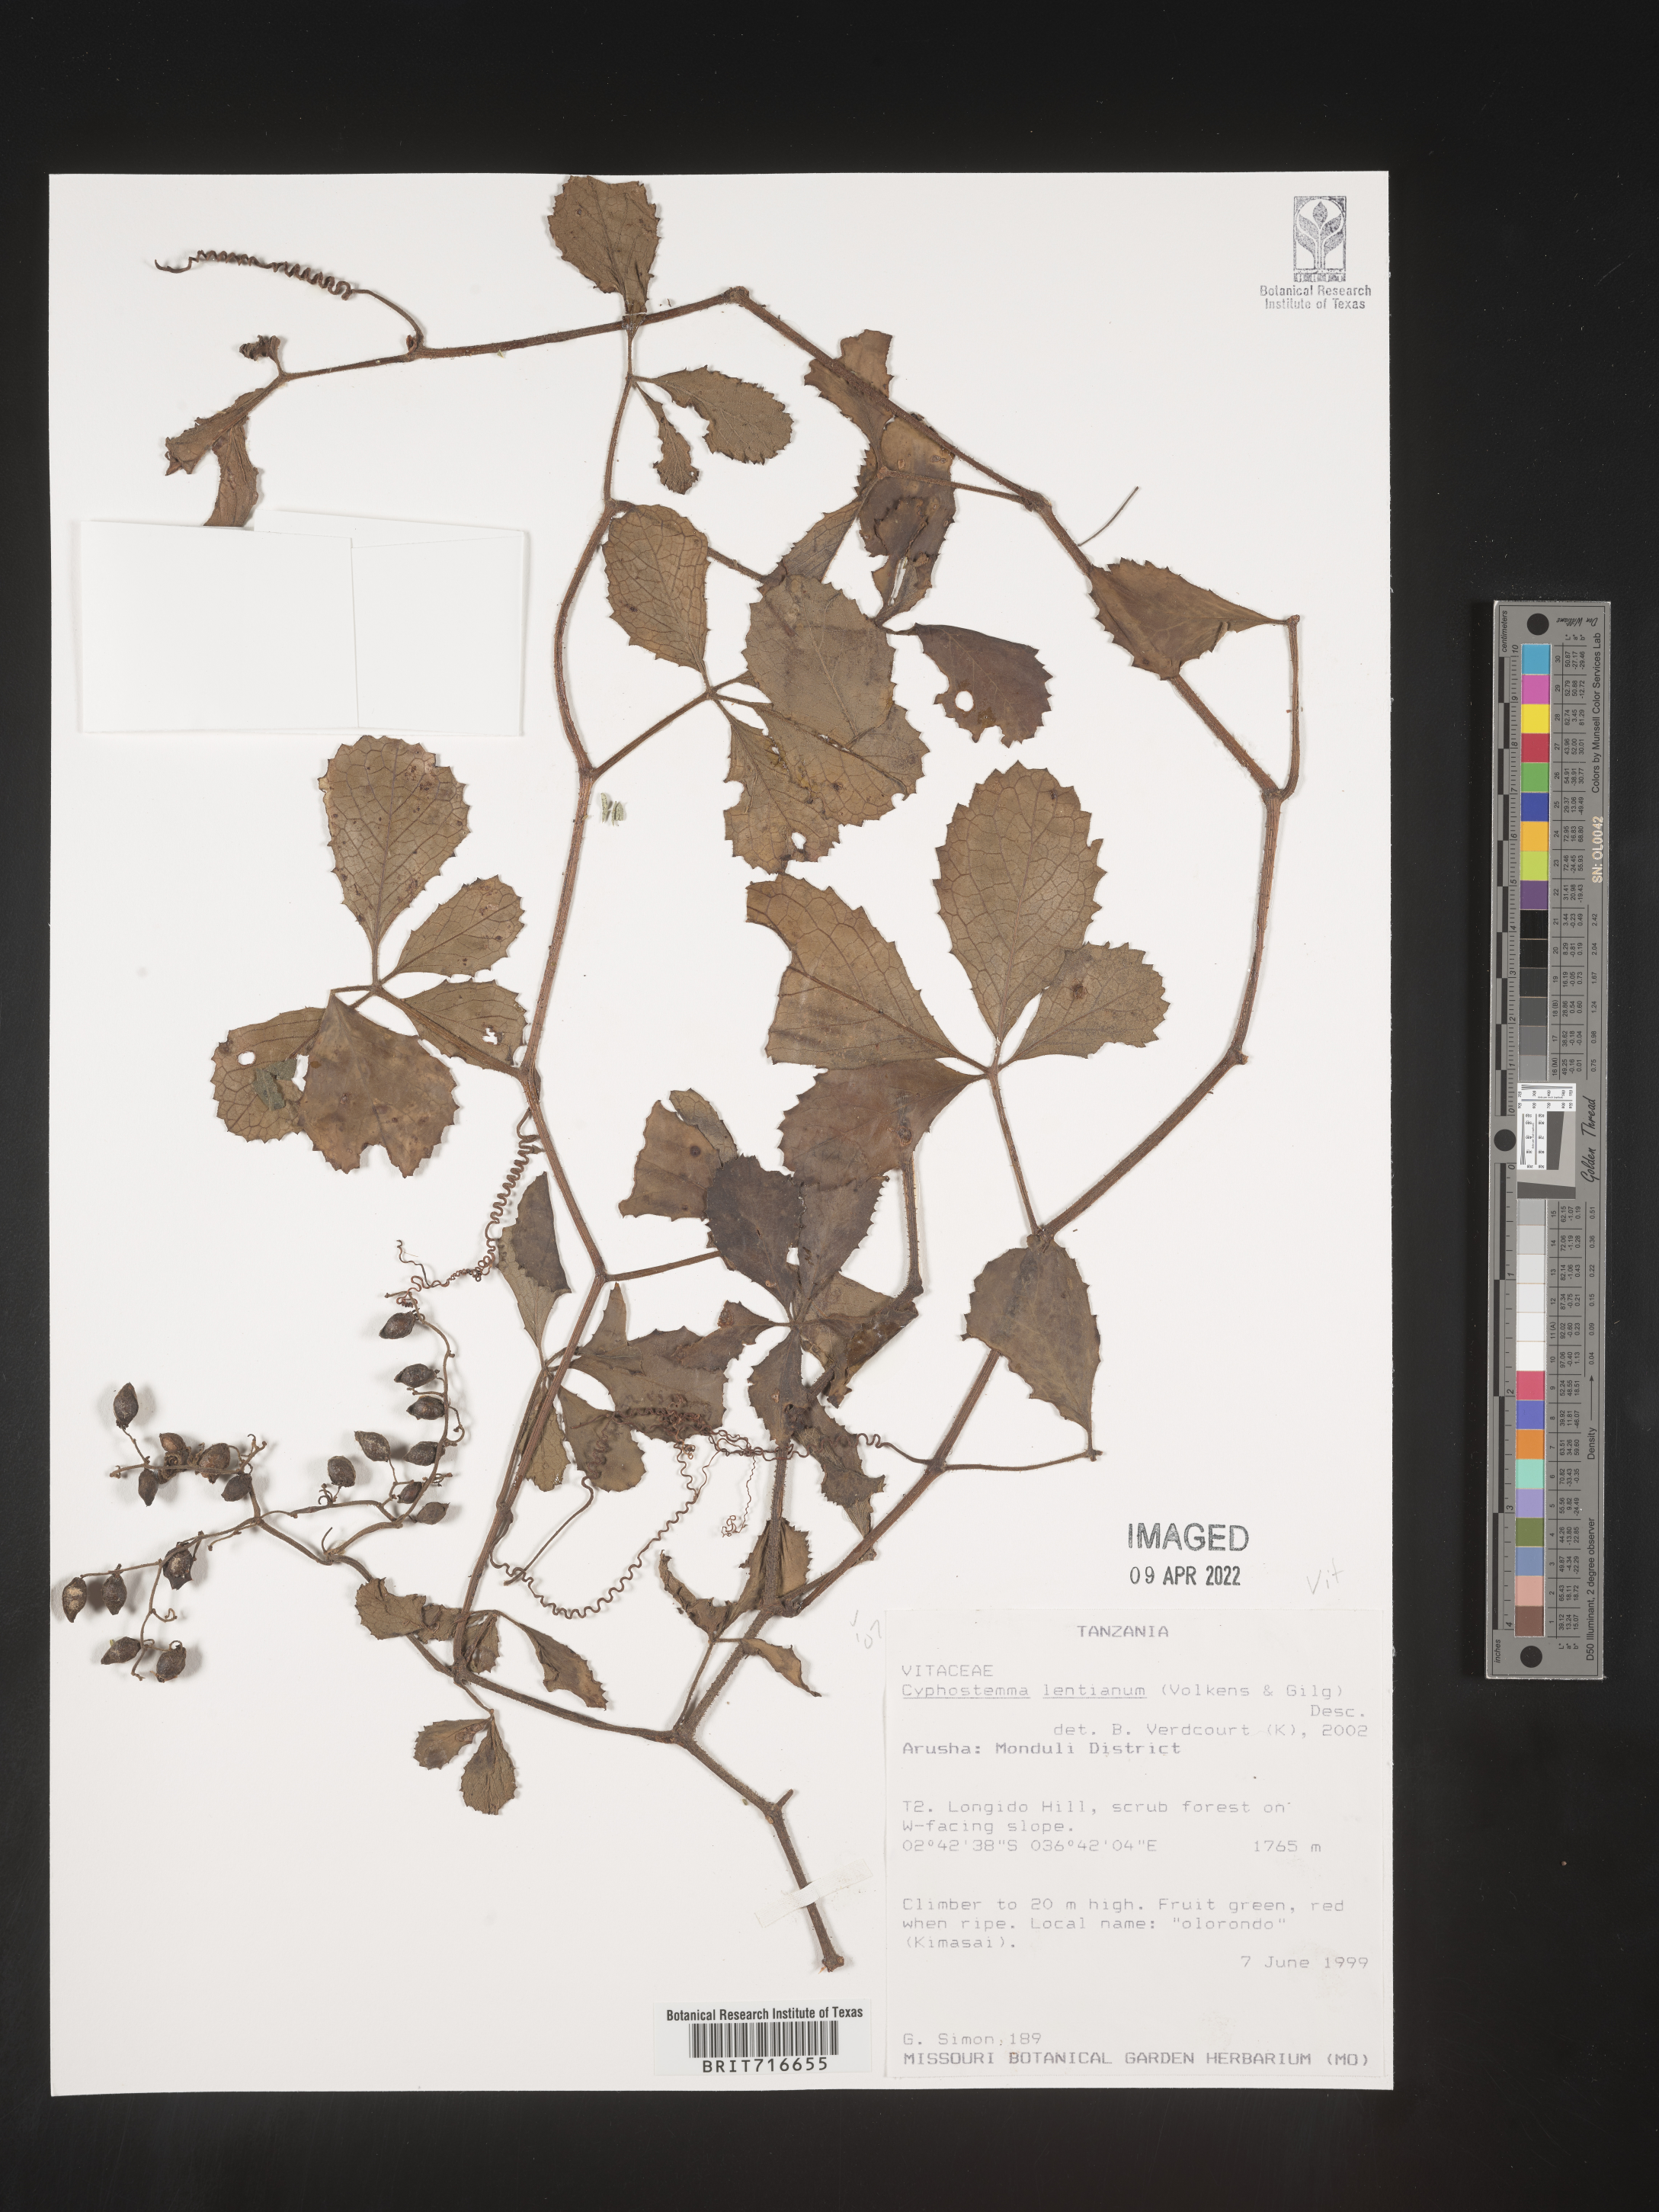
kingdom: Plantae
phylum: Tracheophyta
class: Magnoliopsida
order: Vitales
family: Vitaceae
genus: Cyphostemma
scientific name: Cyphostemma
